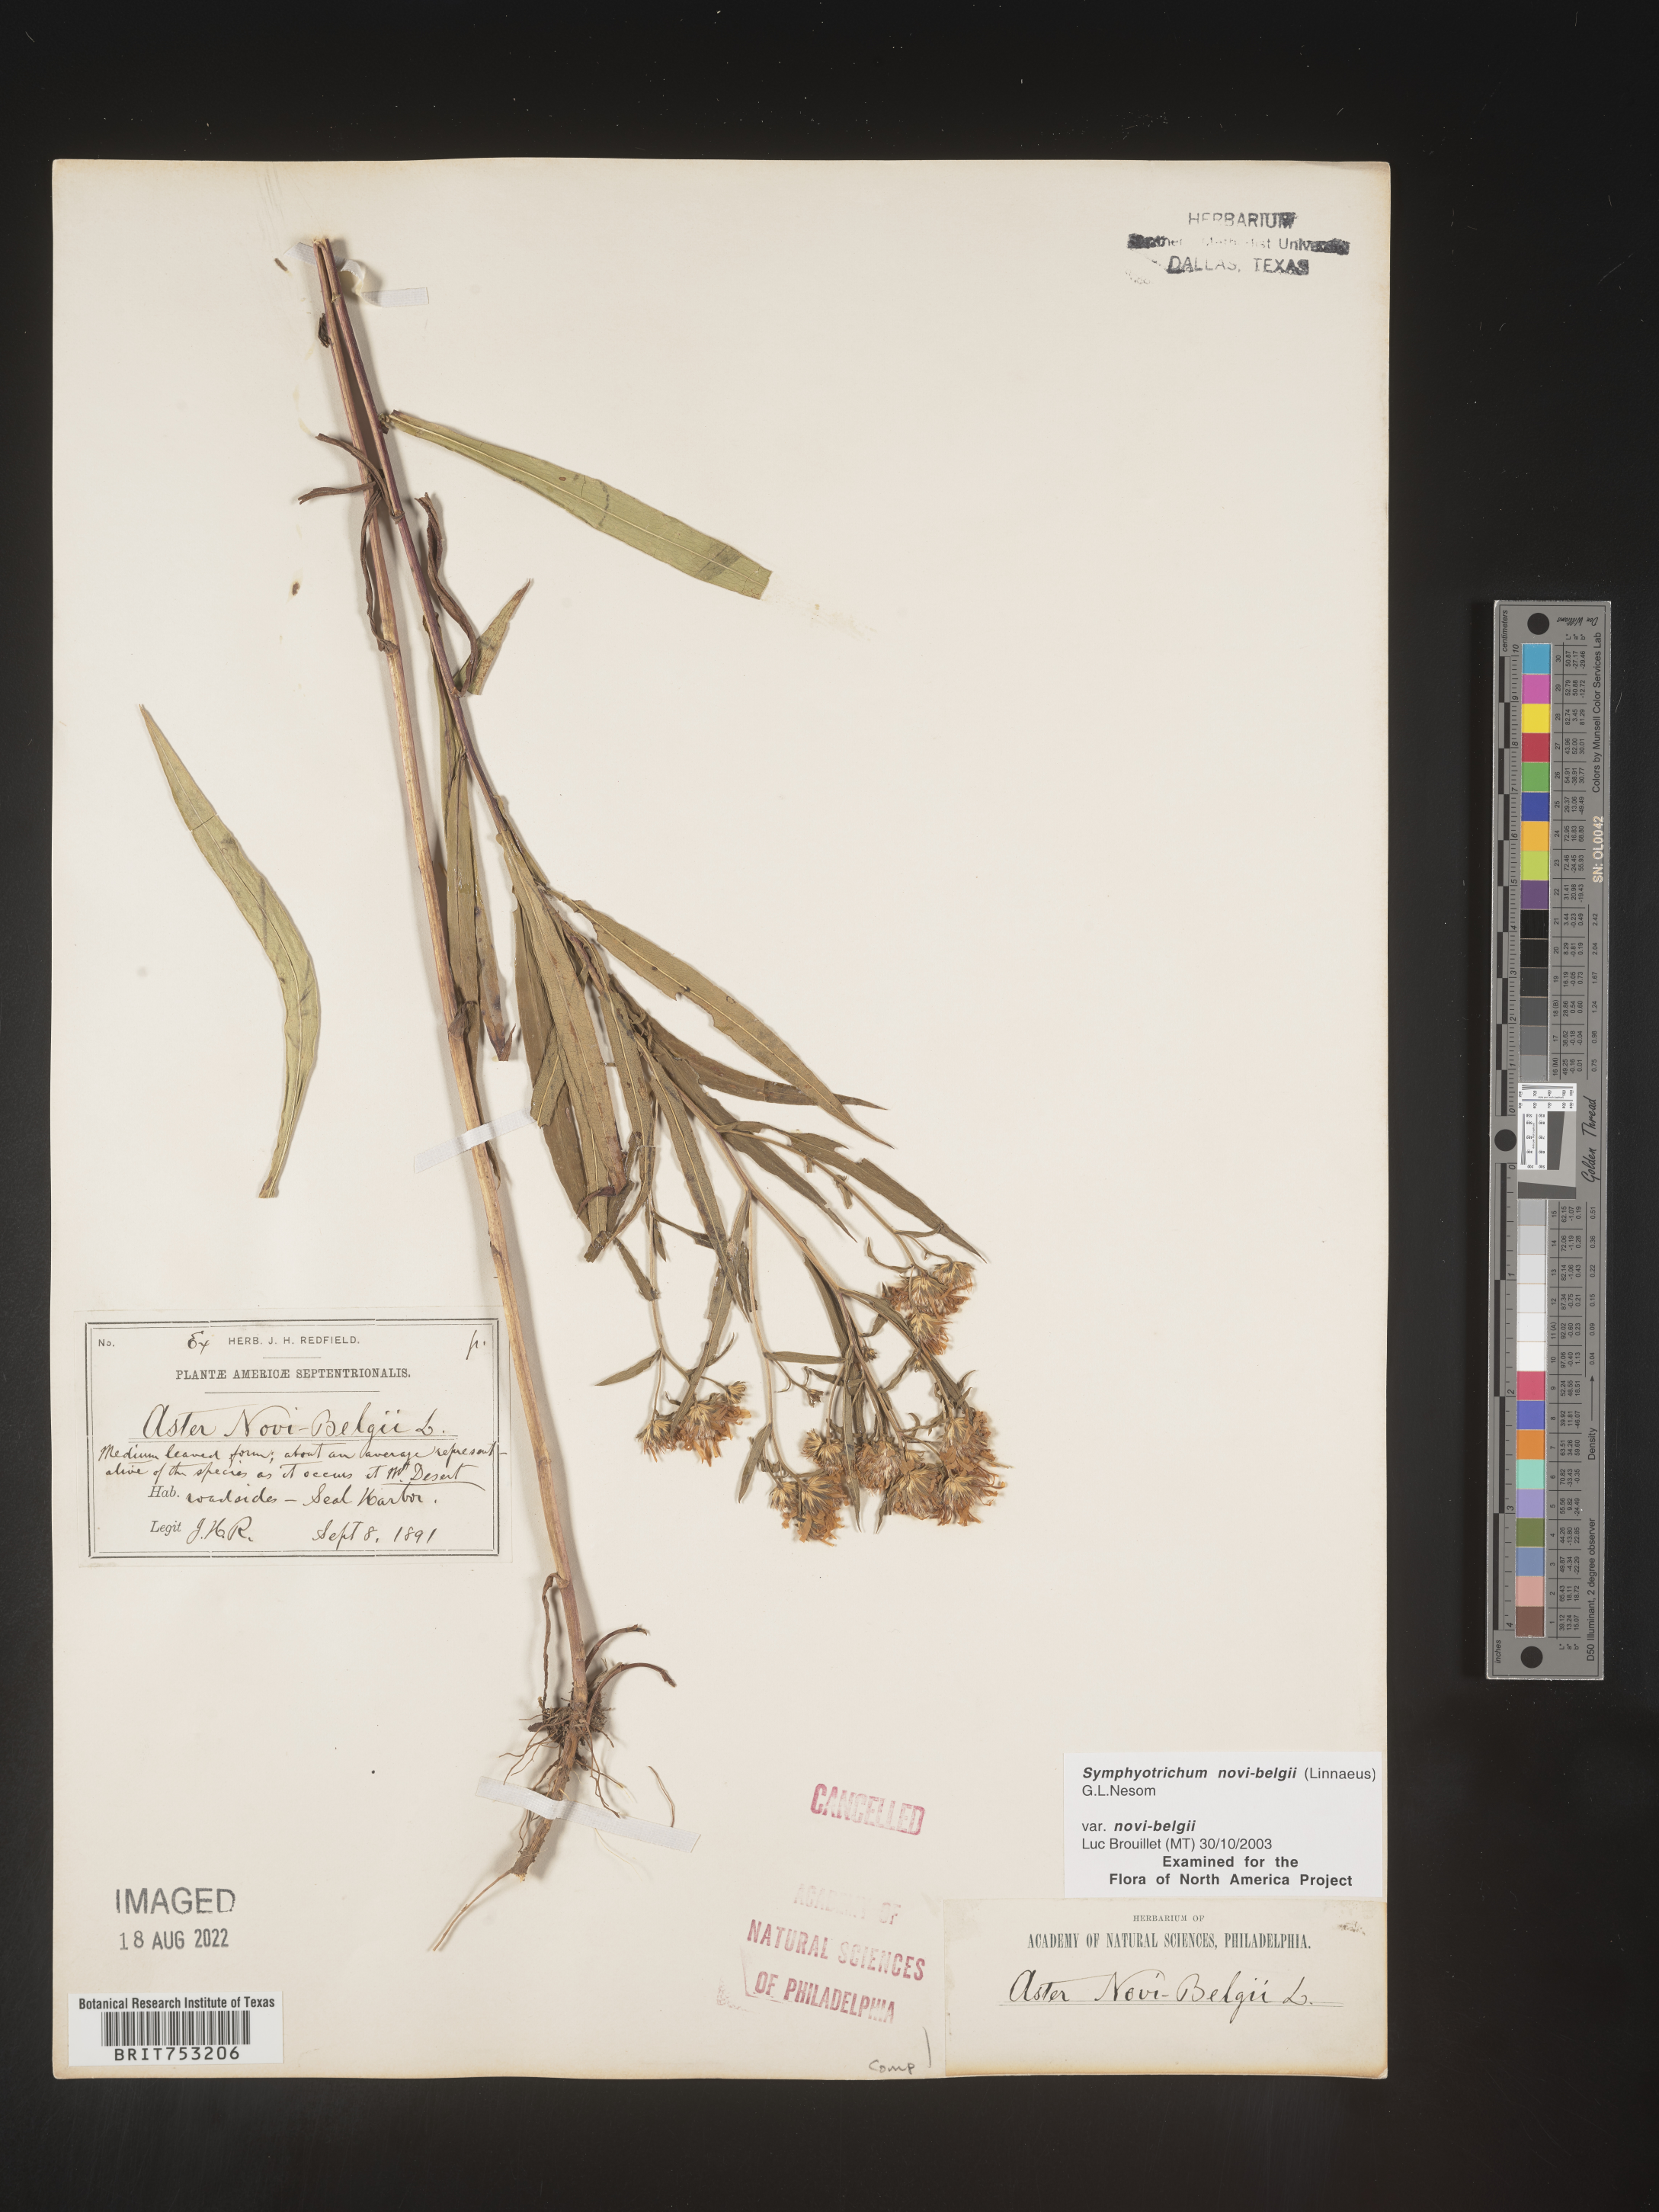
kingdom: Plantae
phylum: Tracheophyta
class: Magnoliopsida
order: Asterales
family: Asteraceae
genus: Symphyotrichum
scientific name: Symphyotrichum novi-belgii
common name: Michaelmas daisy
